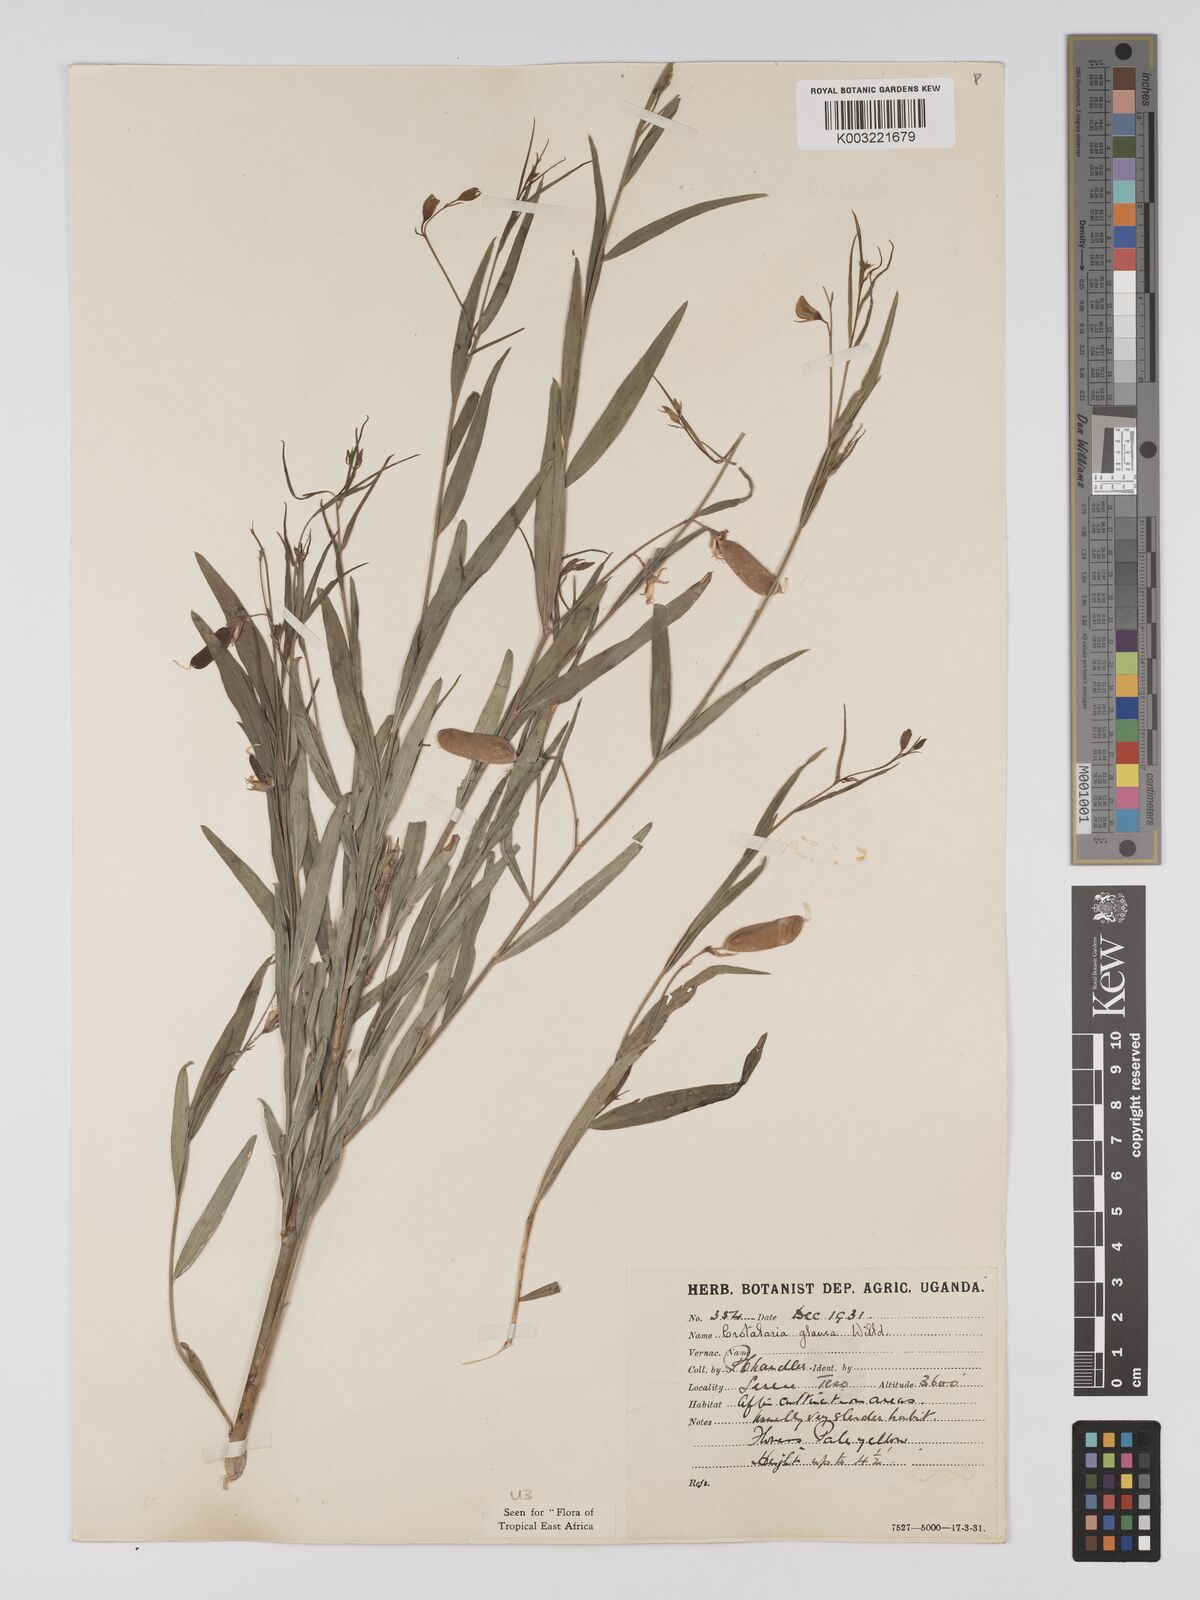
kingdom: Plantae
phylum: Tracheophyta
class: Magnoliopsida
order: Fabales
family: Fabaceae
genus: Crotalaria
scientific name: Crotalaria glauca
